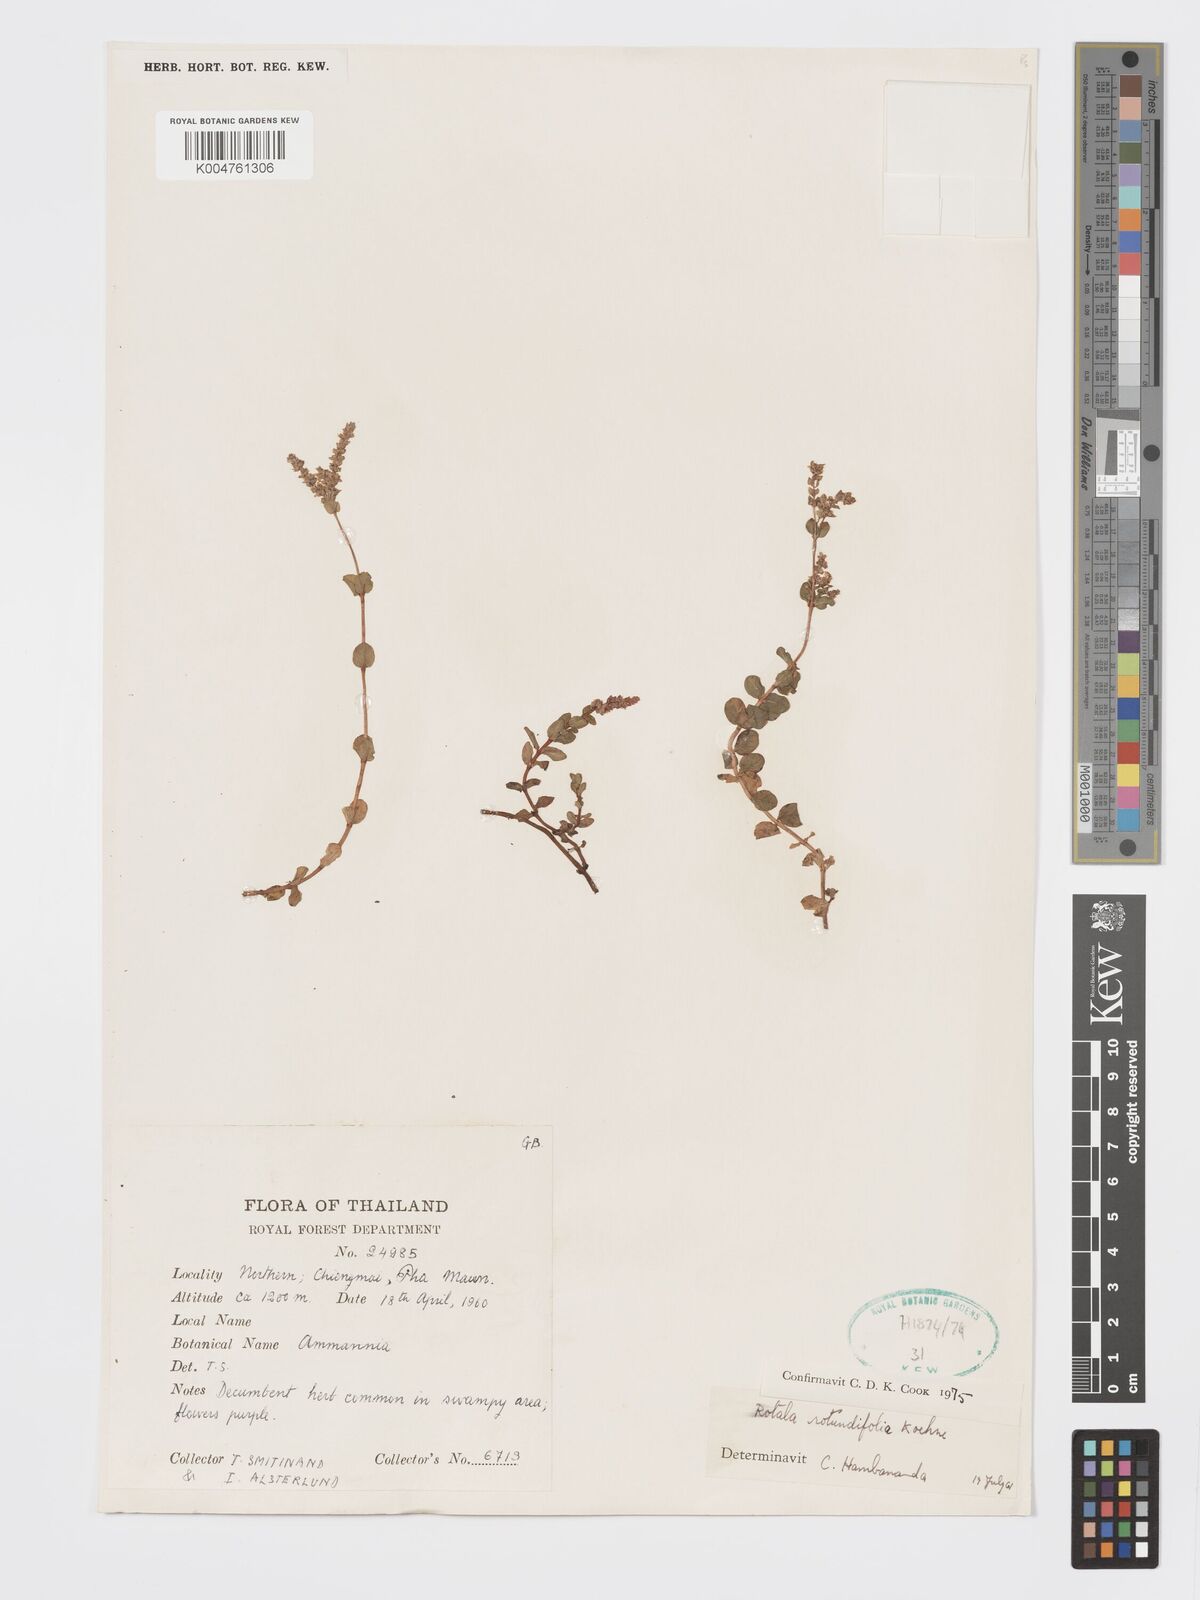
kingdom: Plantae
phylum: Tracheophyta
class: Magnoliopsida
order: Myrtales
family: Lythraceae
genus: Rotala
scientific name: Rotala rotundifolia
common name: Roundleaf toothcup
